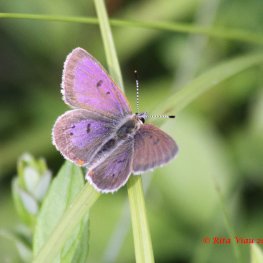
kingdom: Animalia
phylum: Arthropoda
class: Insecta
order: Lepidoptera
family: Sesiidae
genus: Sesia
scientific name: Sesia Lycaena epixanthe
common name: Bog Copper
